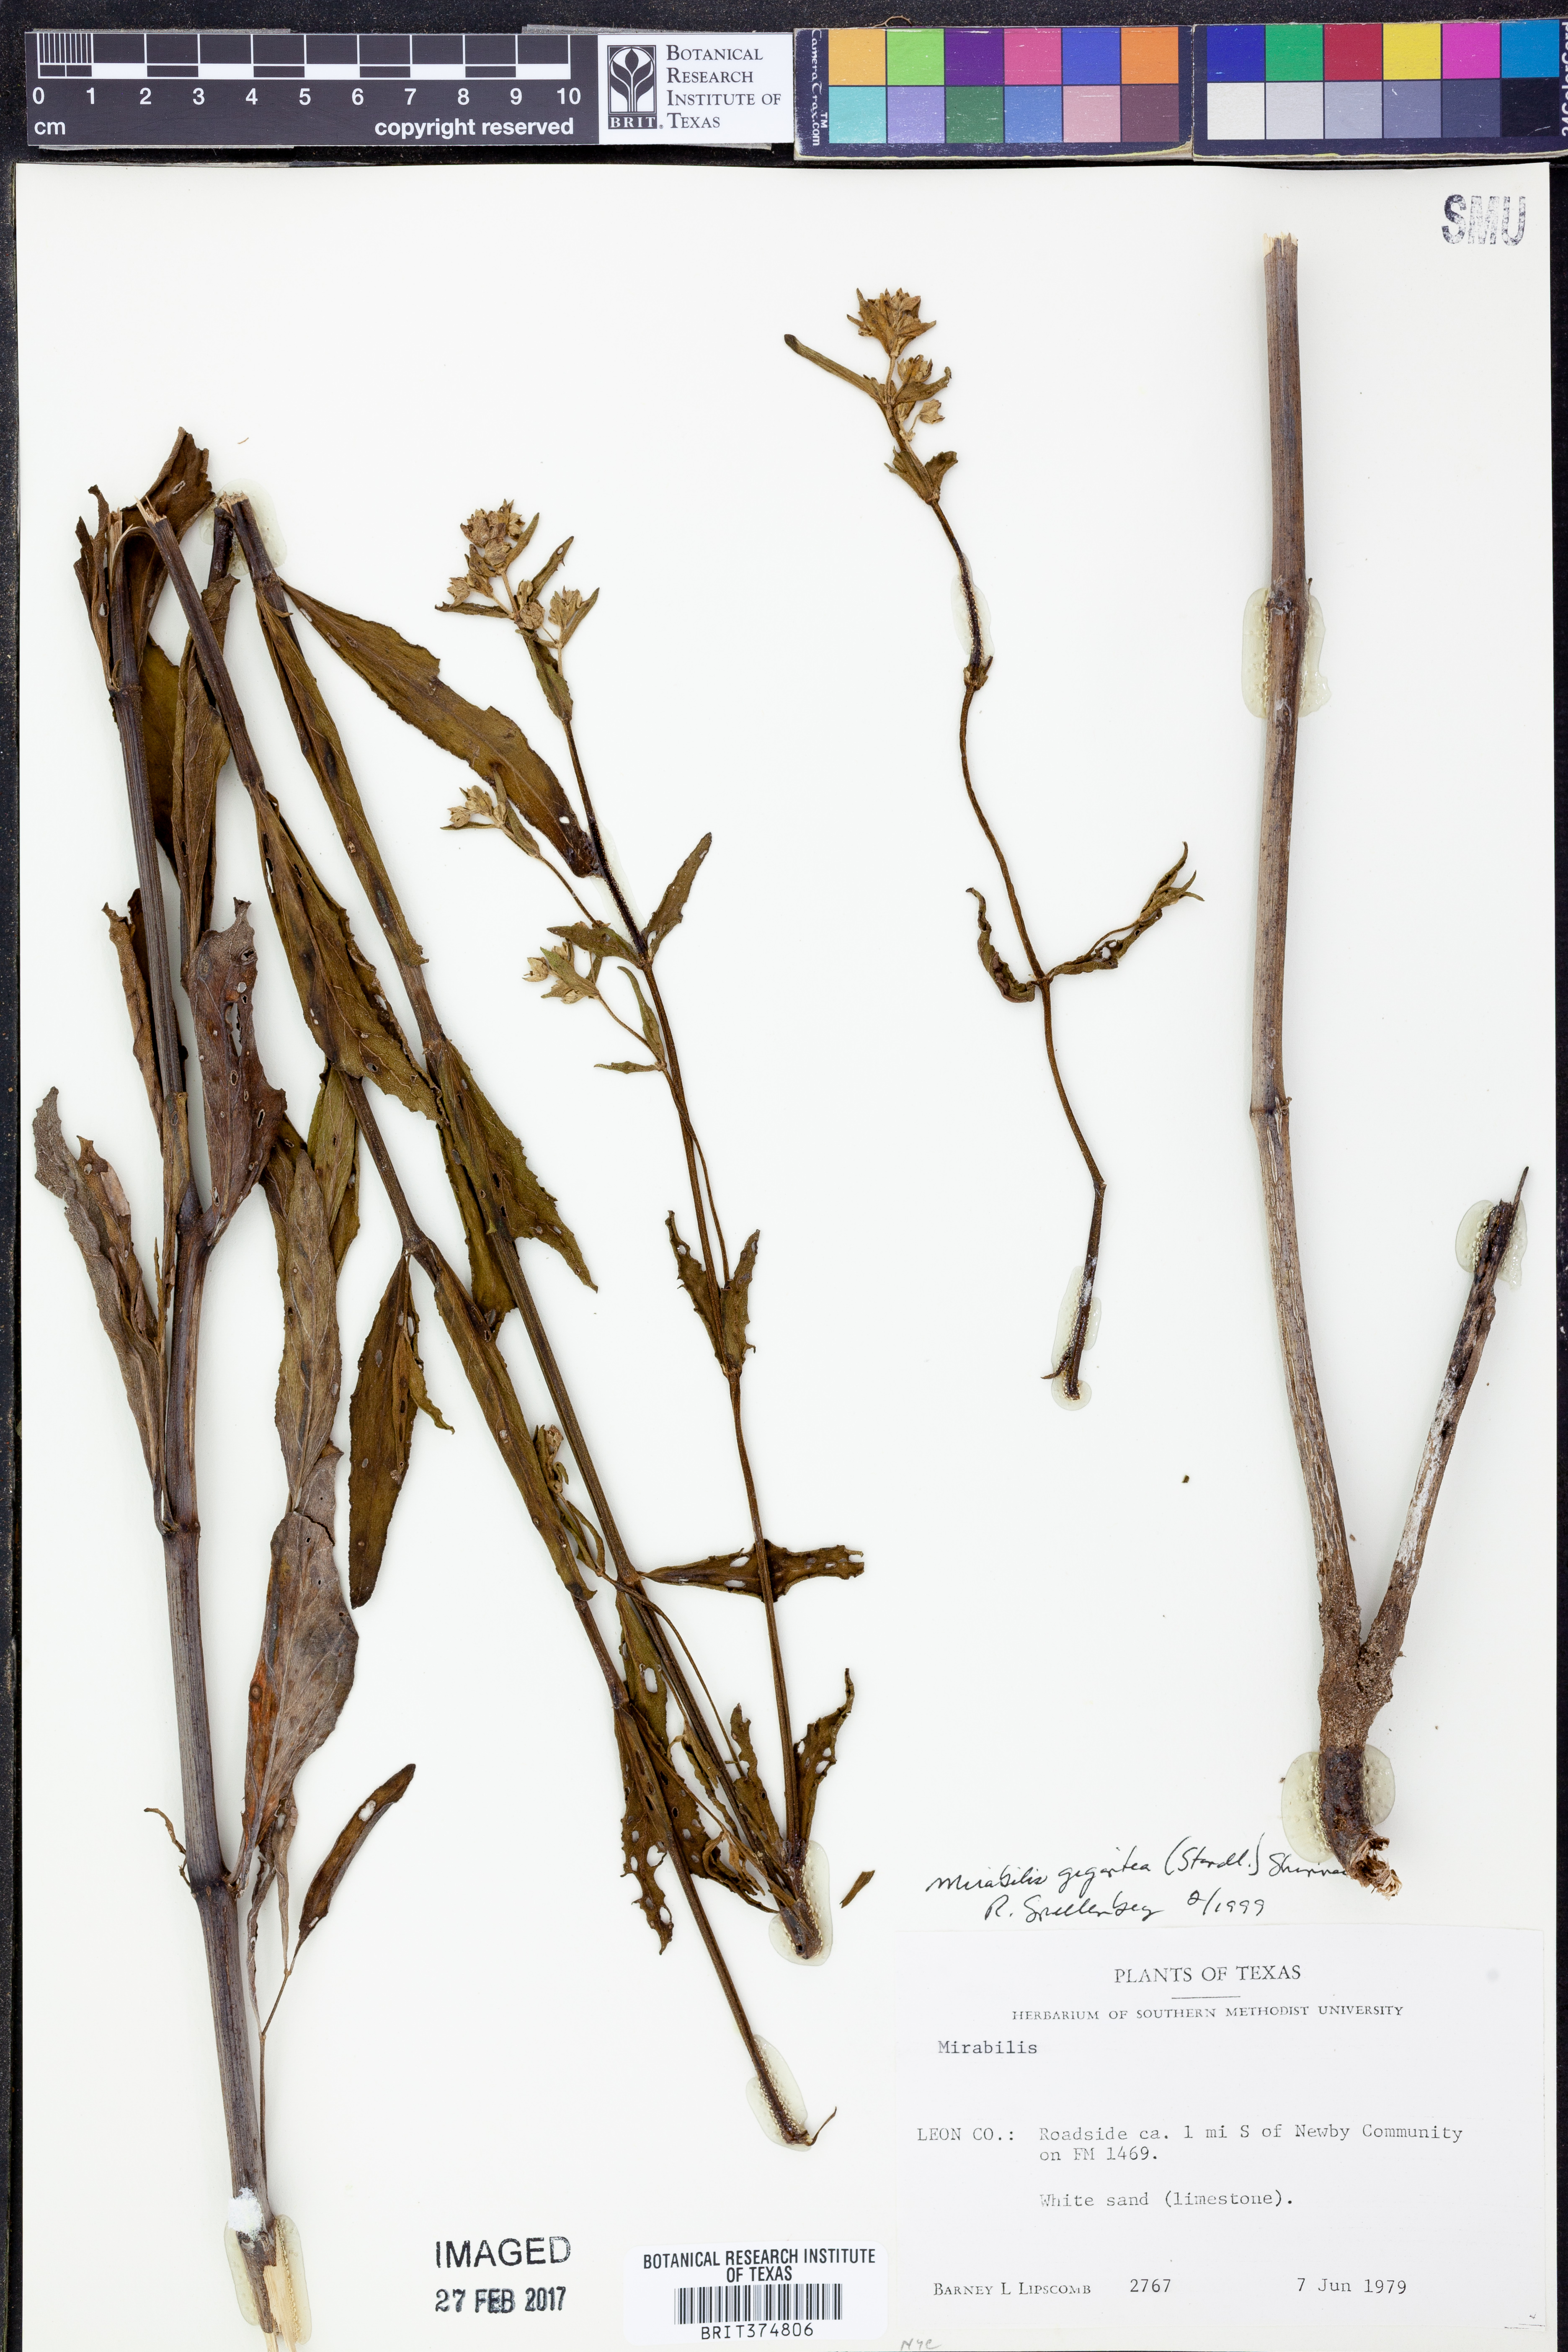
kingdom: Plantae
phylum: Tracheophyta
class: Magnoliopsida
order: Caryophyllales
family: Nyctaginaceae
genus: Mirabilis
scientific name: Mirabilis gigantea
